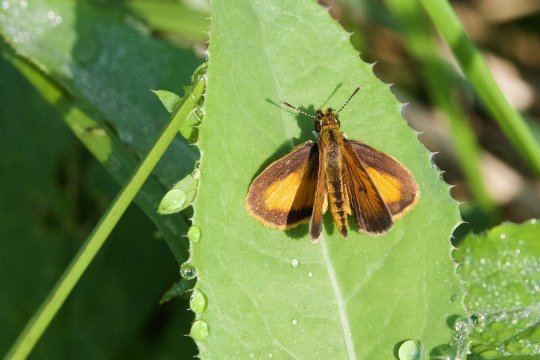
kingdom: Animalia
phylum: Arthropoda
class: Insecta
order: Lepidoptera
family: Hesperiidae
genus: Ancyloxypha
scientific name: Ancyloxypha numitor
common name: Least Skipper
